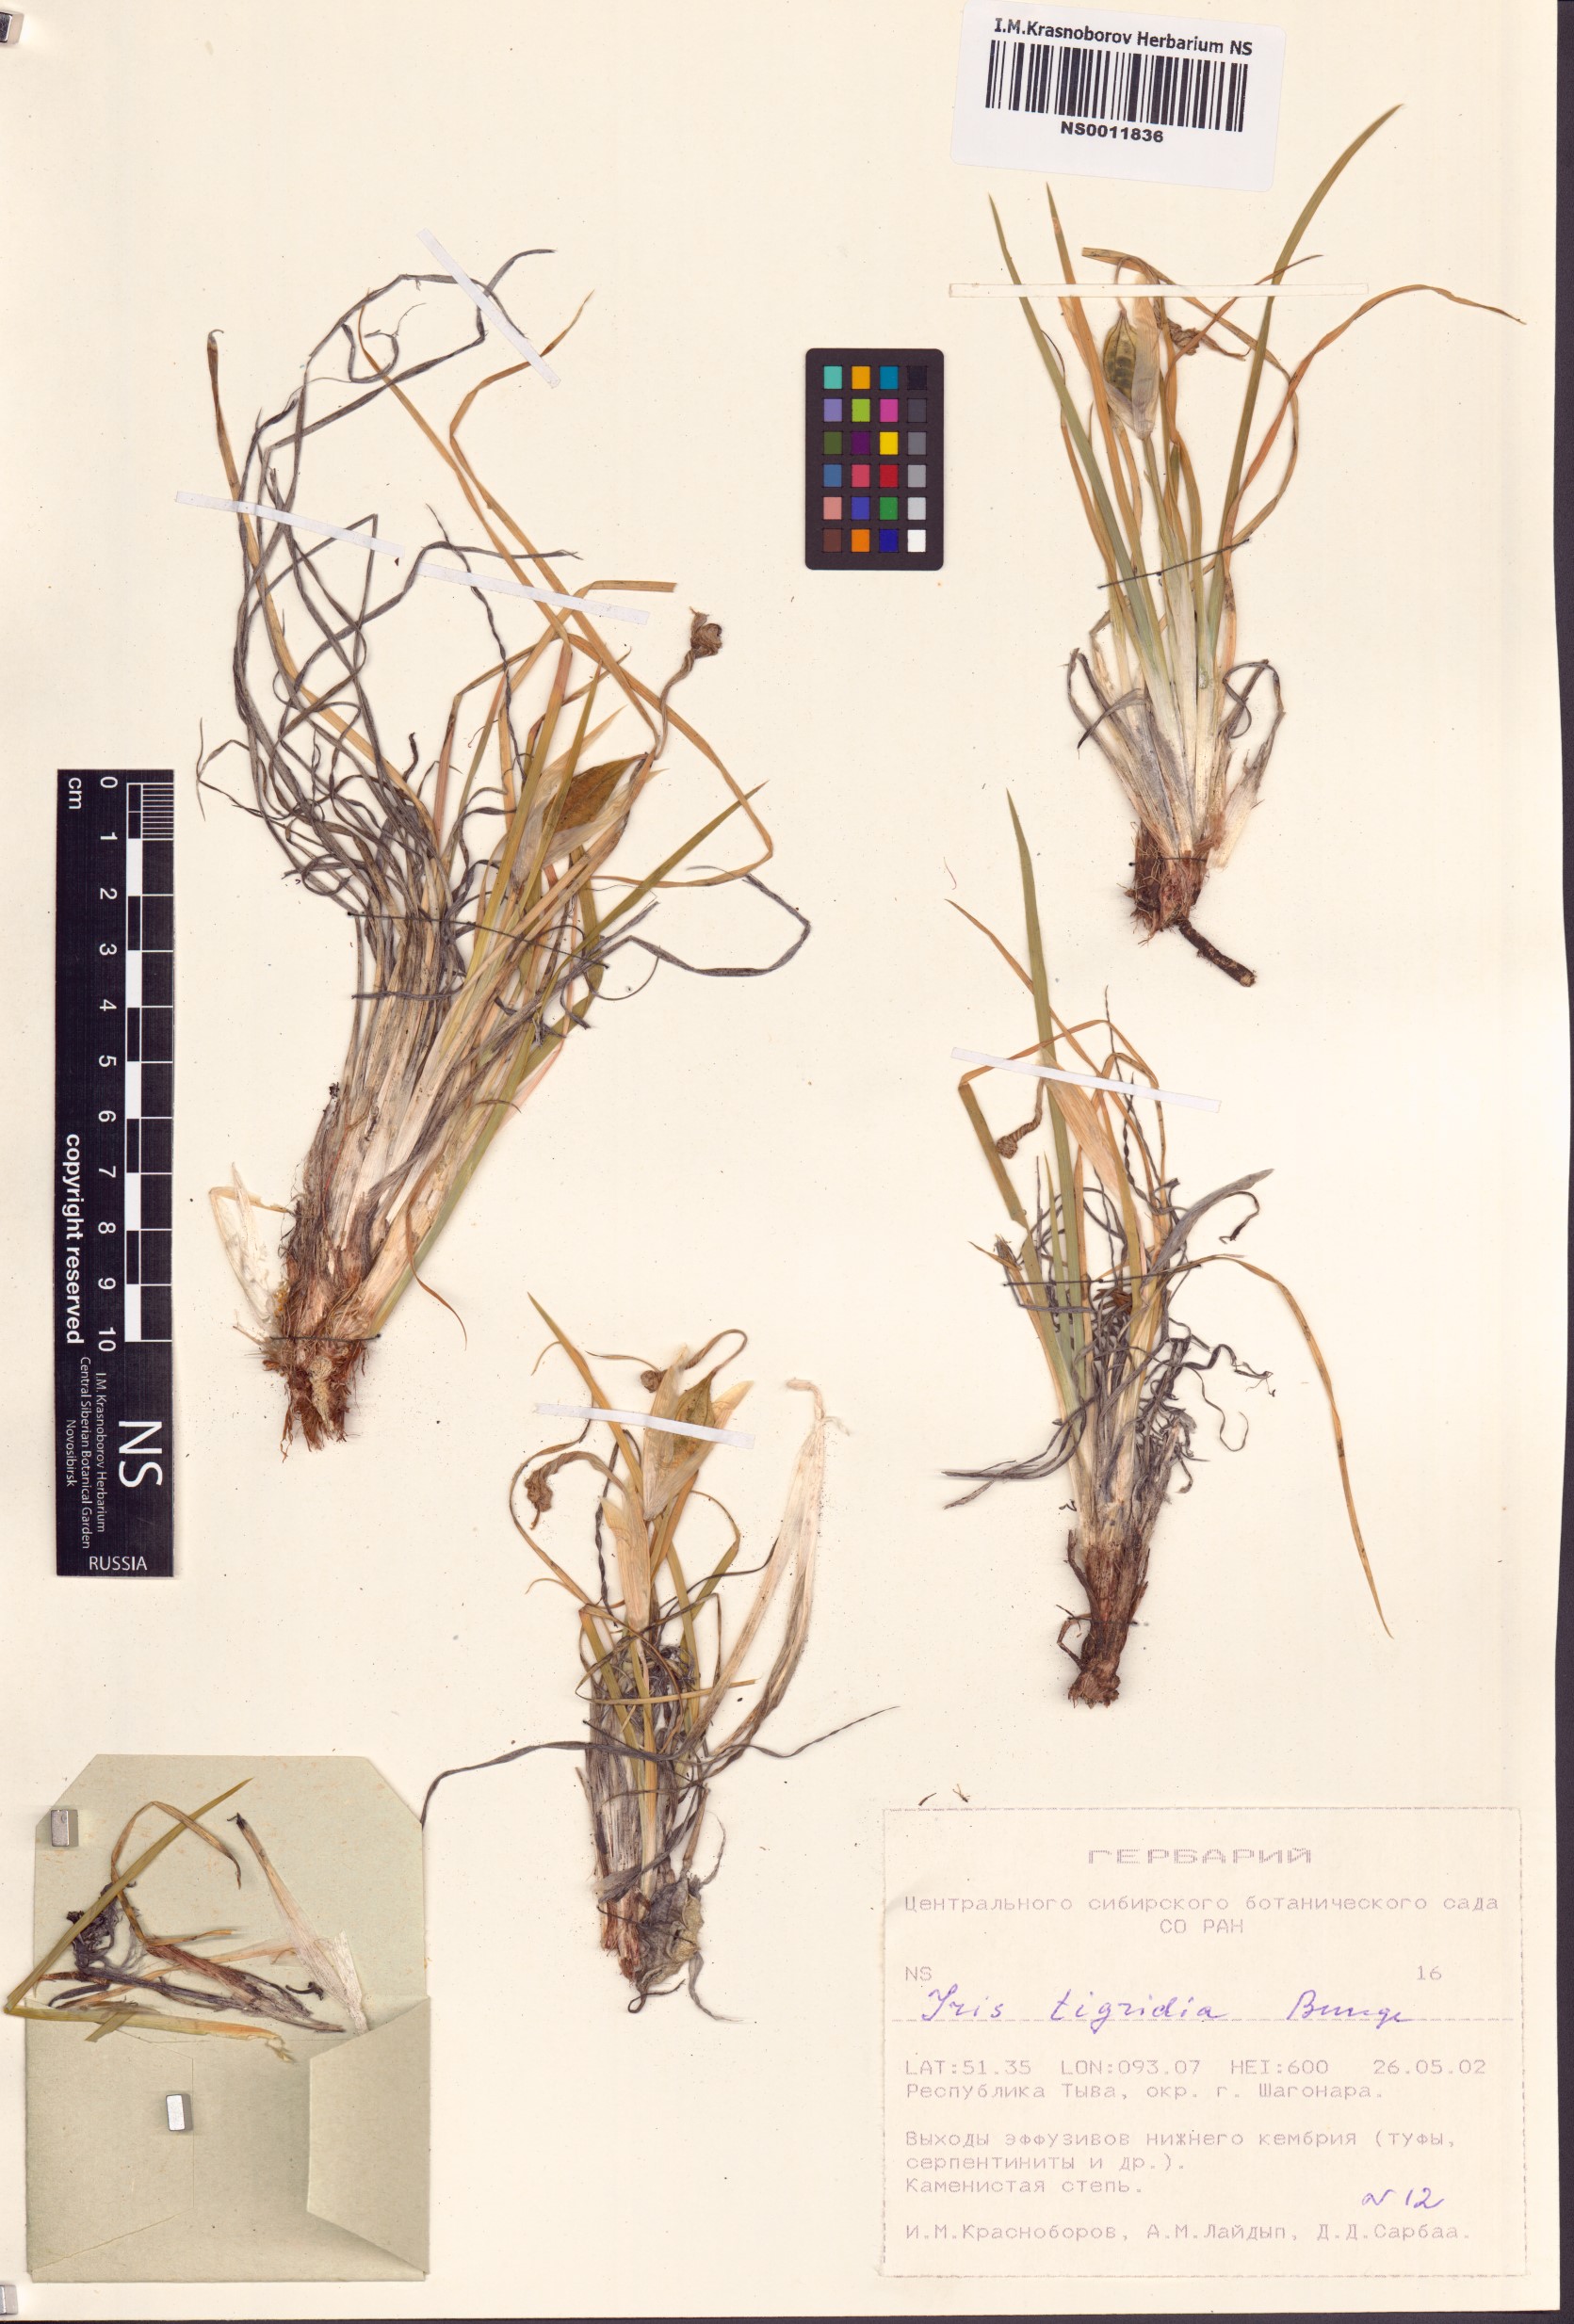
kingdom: Plantae
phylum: Tracheophyta
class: Liliopsida
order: Asparagales
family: Iridaceae
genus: Iris
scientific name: Iris tigridia
